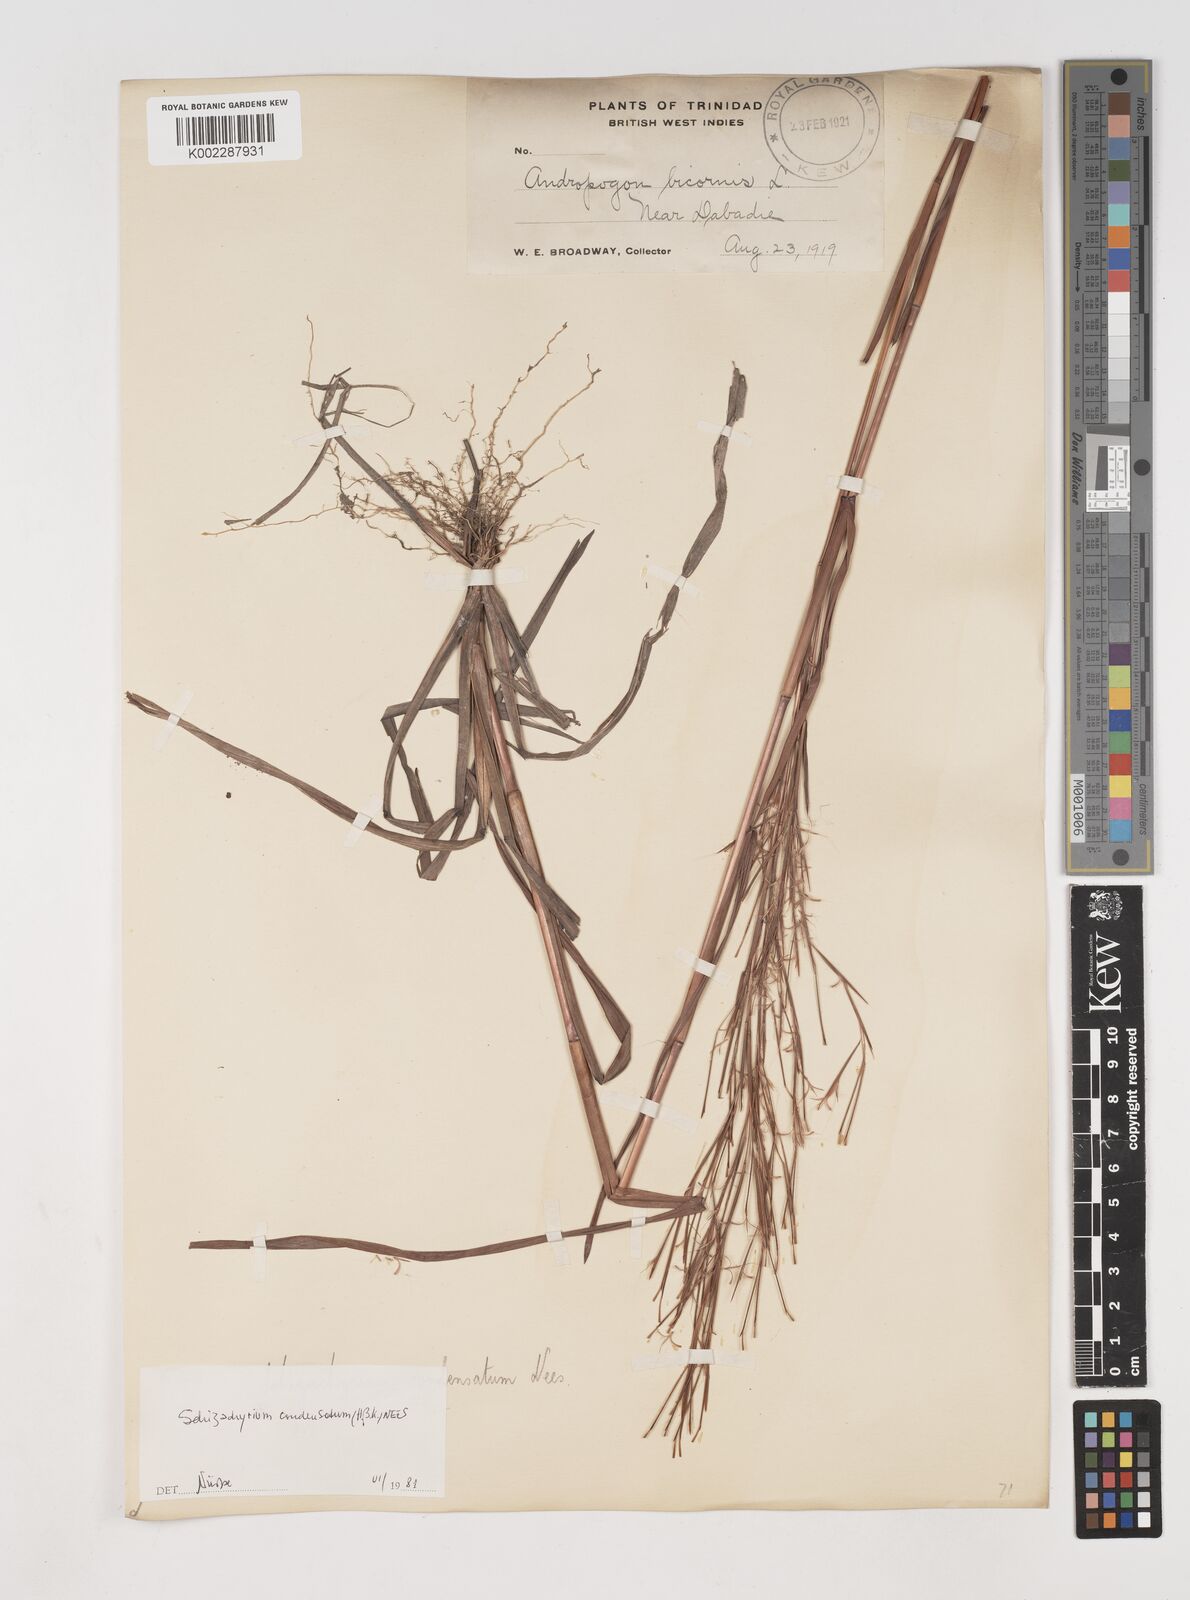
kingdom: Plantae
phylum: Tracheophyta
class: Liliopsida
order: Poales
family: Poaceae
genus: Schizachyrium
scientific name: Schizachyrium condensatum
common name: Bush beardgrass
